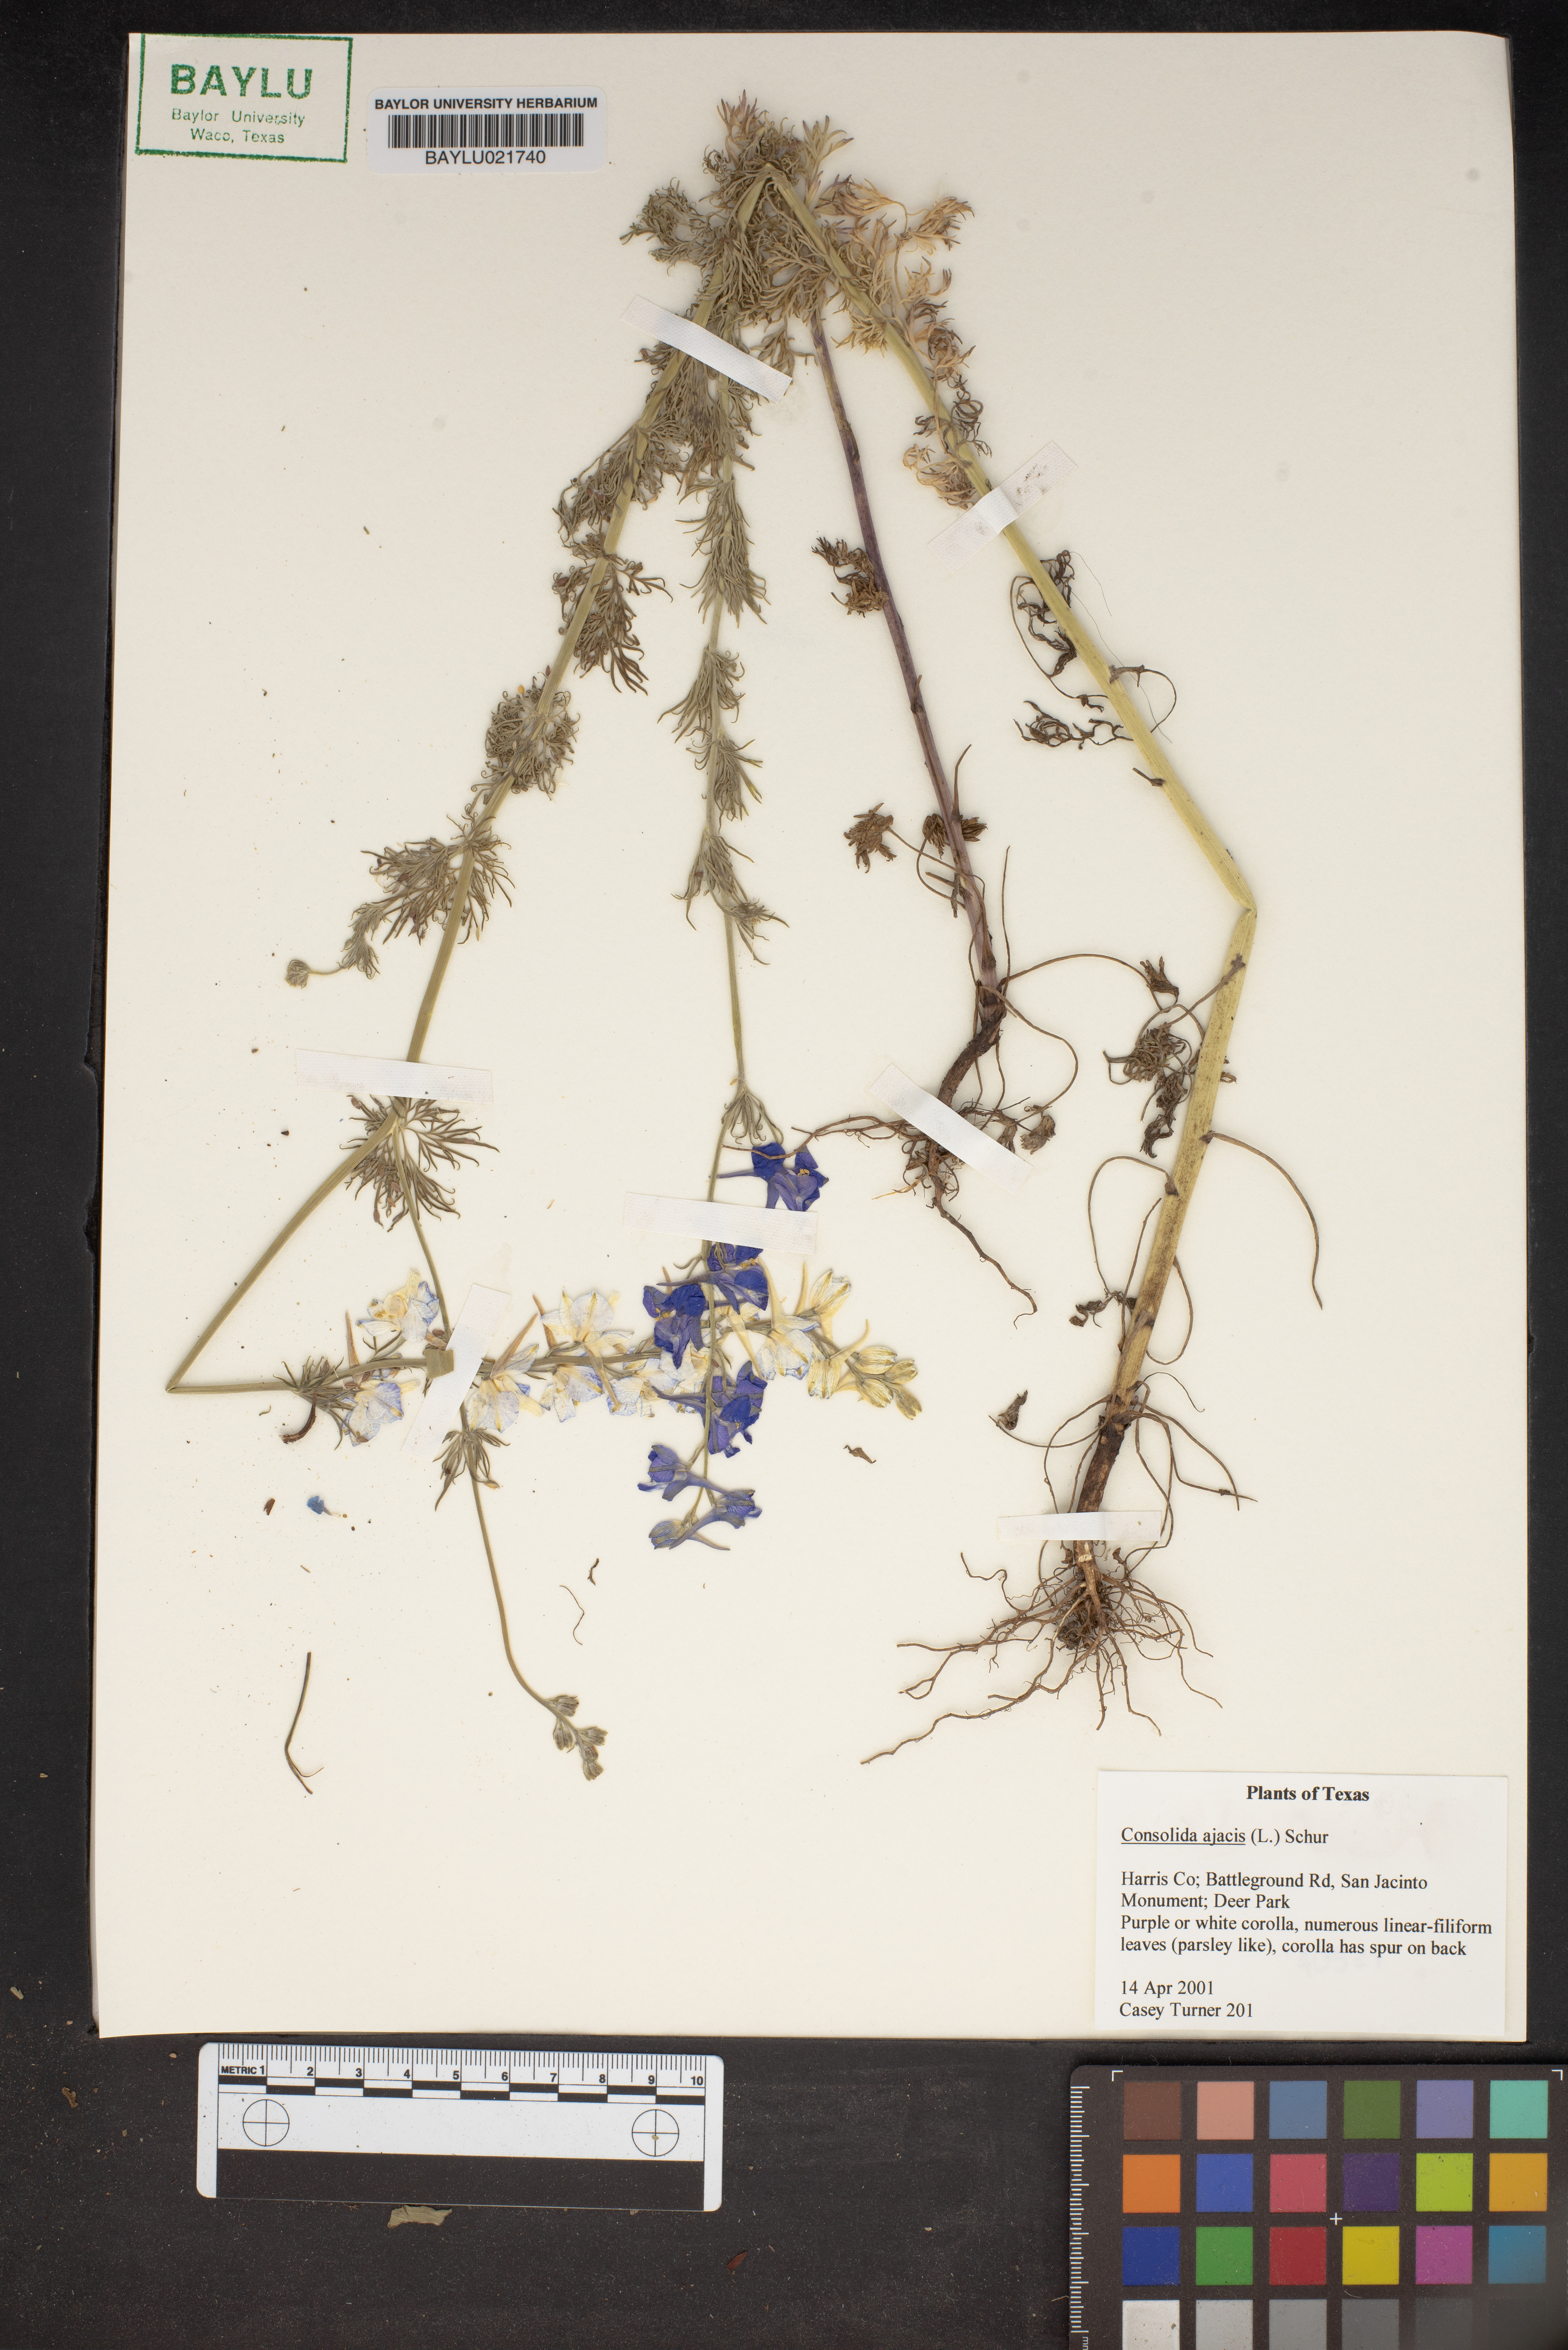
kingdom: Plantae
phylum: Tracheophyta
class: Magnoliopsida
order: Ranunculales
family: Ranunculaceae
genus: Delphinium
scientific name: Delphinium ajacis
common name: Doubtful knight's-spur
